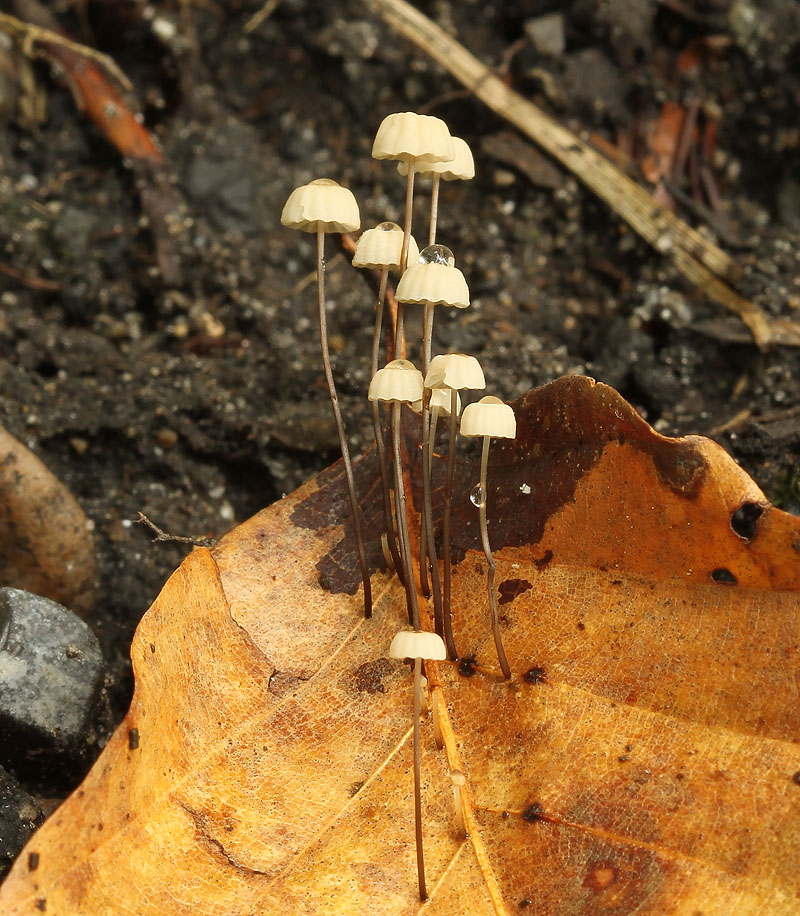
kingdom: Fungi
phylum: Basidiomycota
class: Agaricomycetes
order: Agaricales
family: Marasmiaceae
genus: Marasmius
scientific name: Marasmius bulliardii
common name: furet bruskhat
